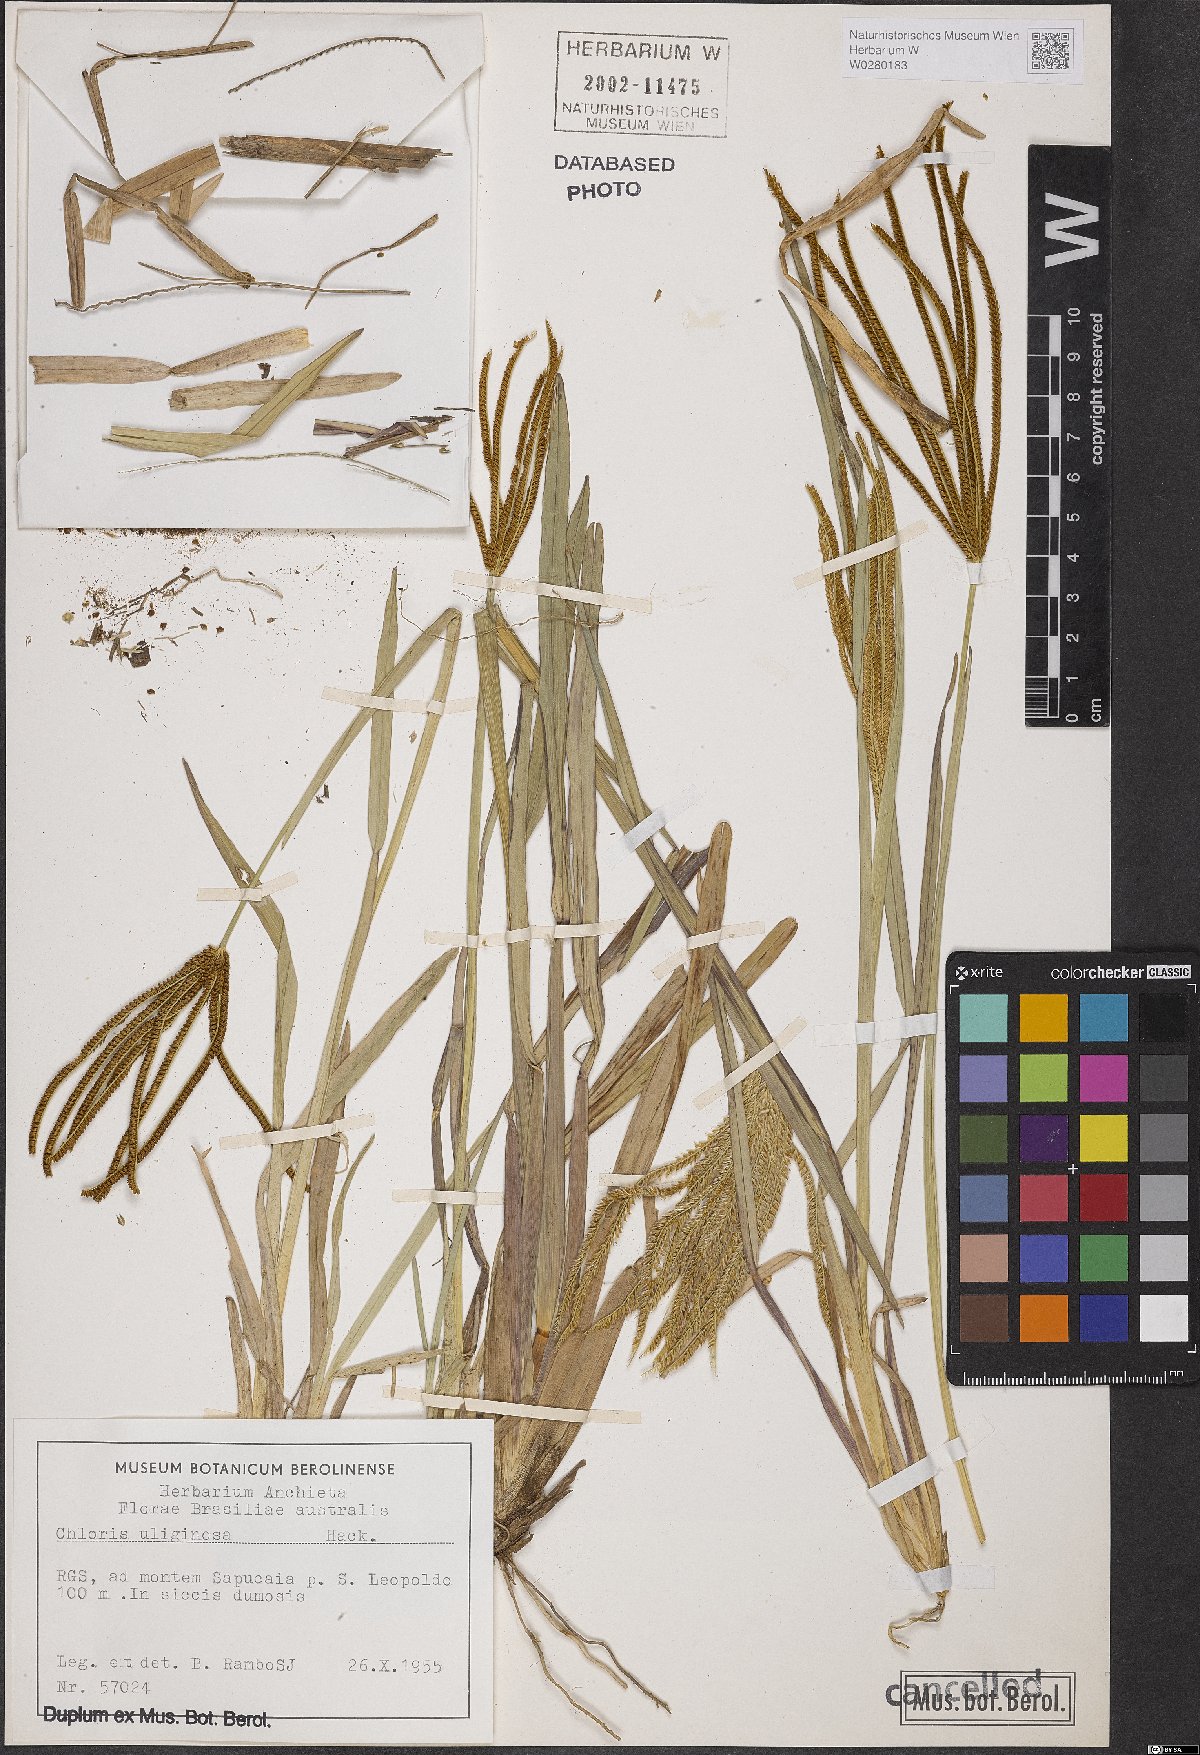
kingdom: Plantae
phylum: Tracheophyta
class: Liliopsida
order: Poales
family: Poaceae
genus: Eustachys
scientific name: Eustachys uliginosa
